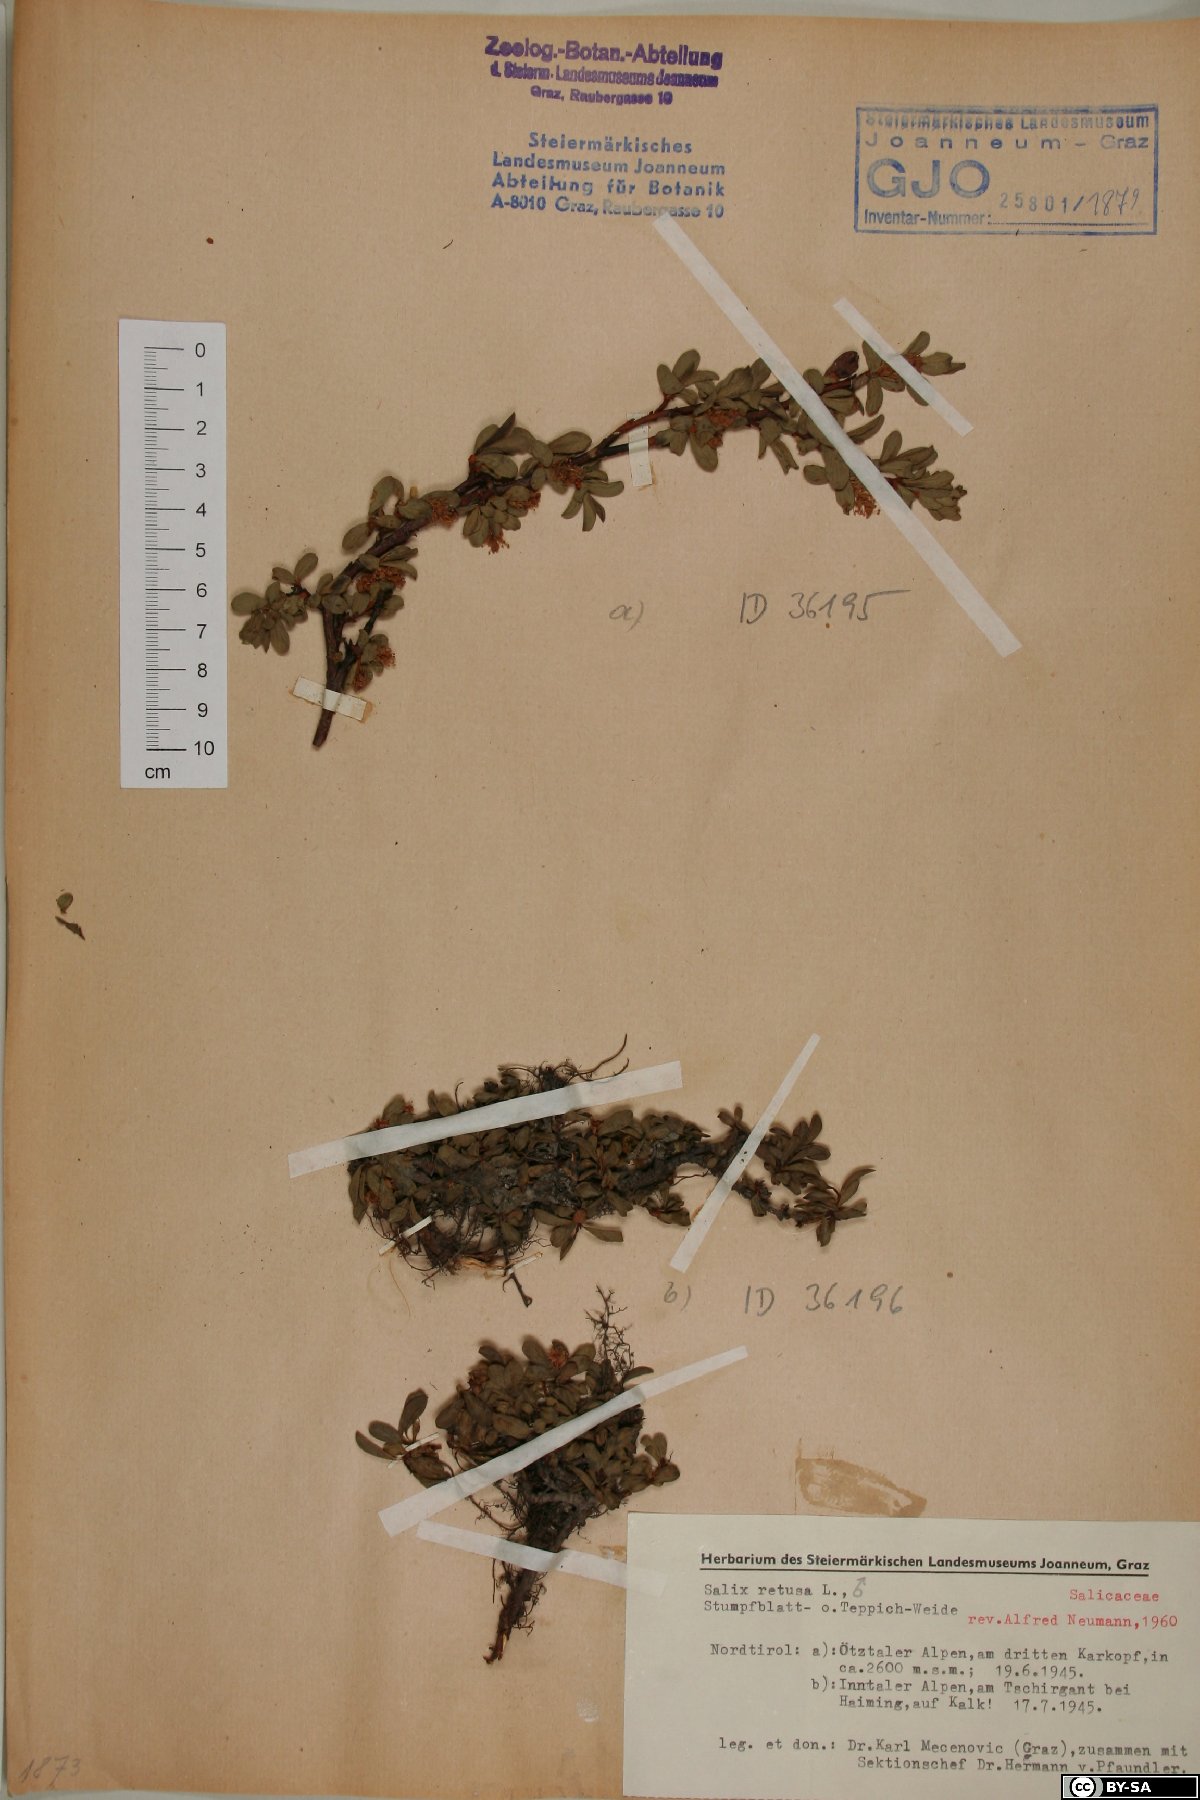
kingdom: Plantae
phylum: Tracheophyta
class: Magnoliopsida
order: Malpighiales
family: Salicaceae
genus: Salix
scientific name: Salix retusa
